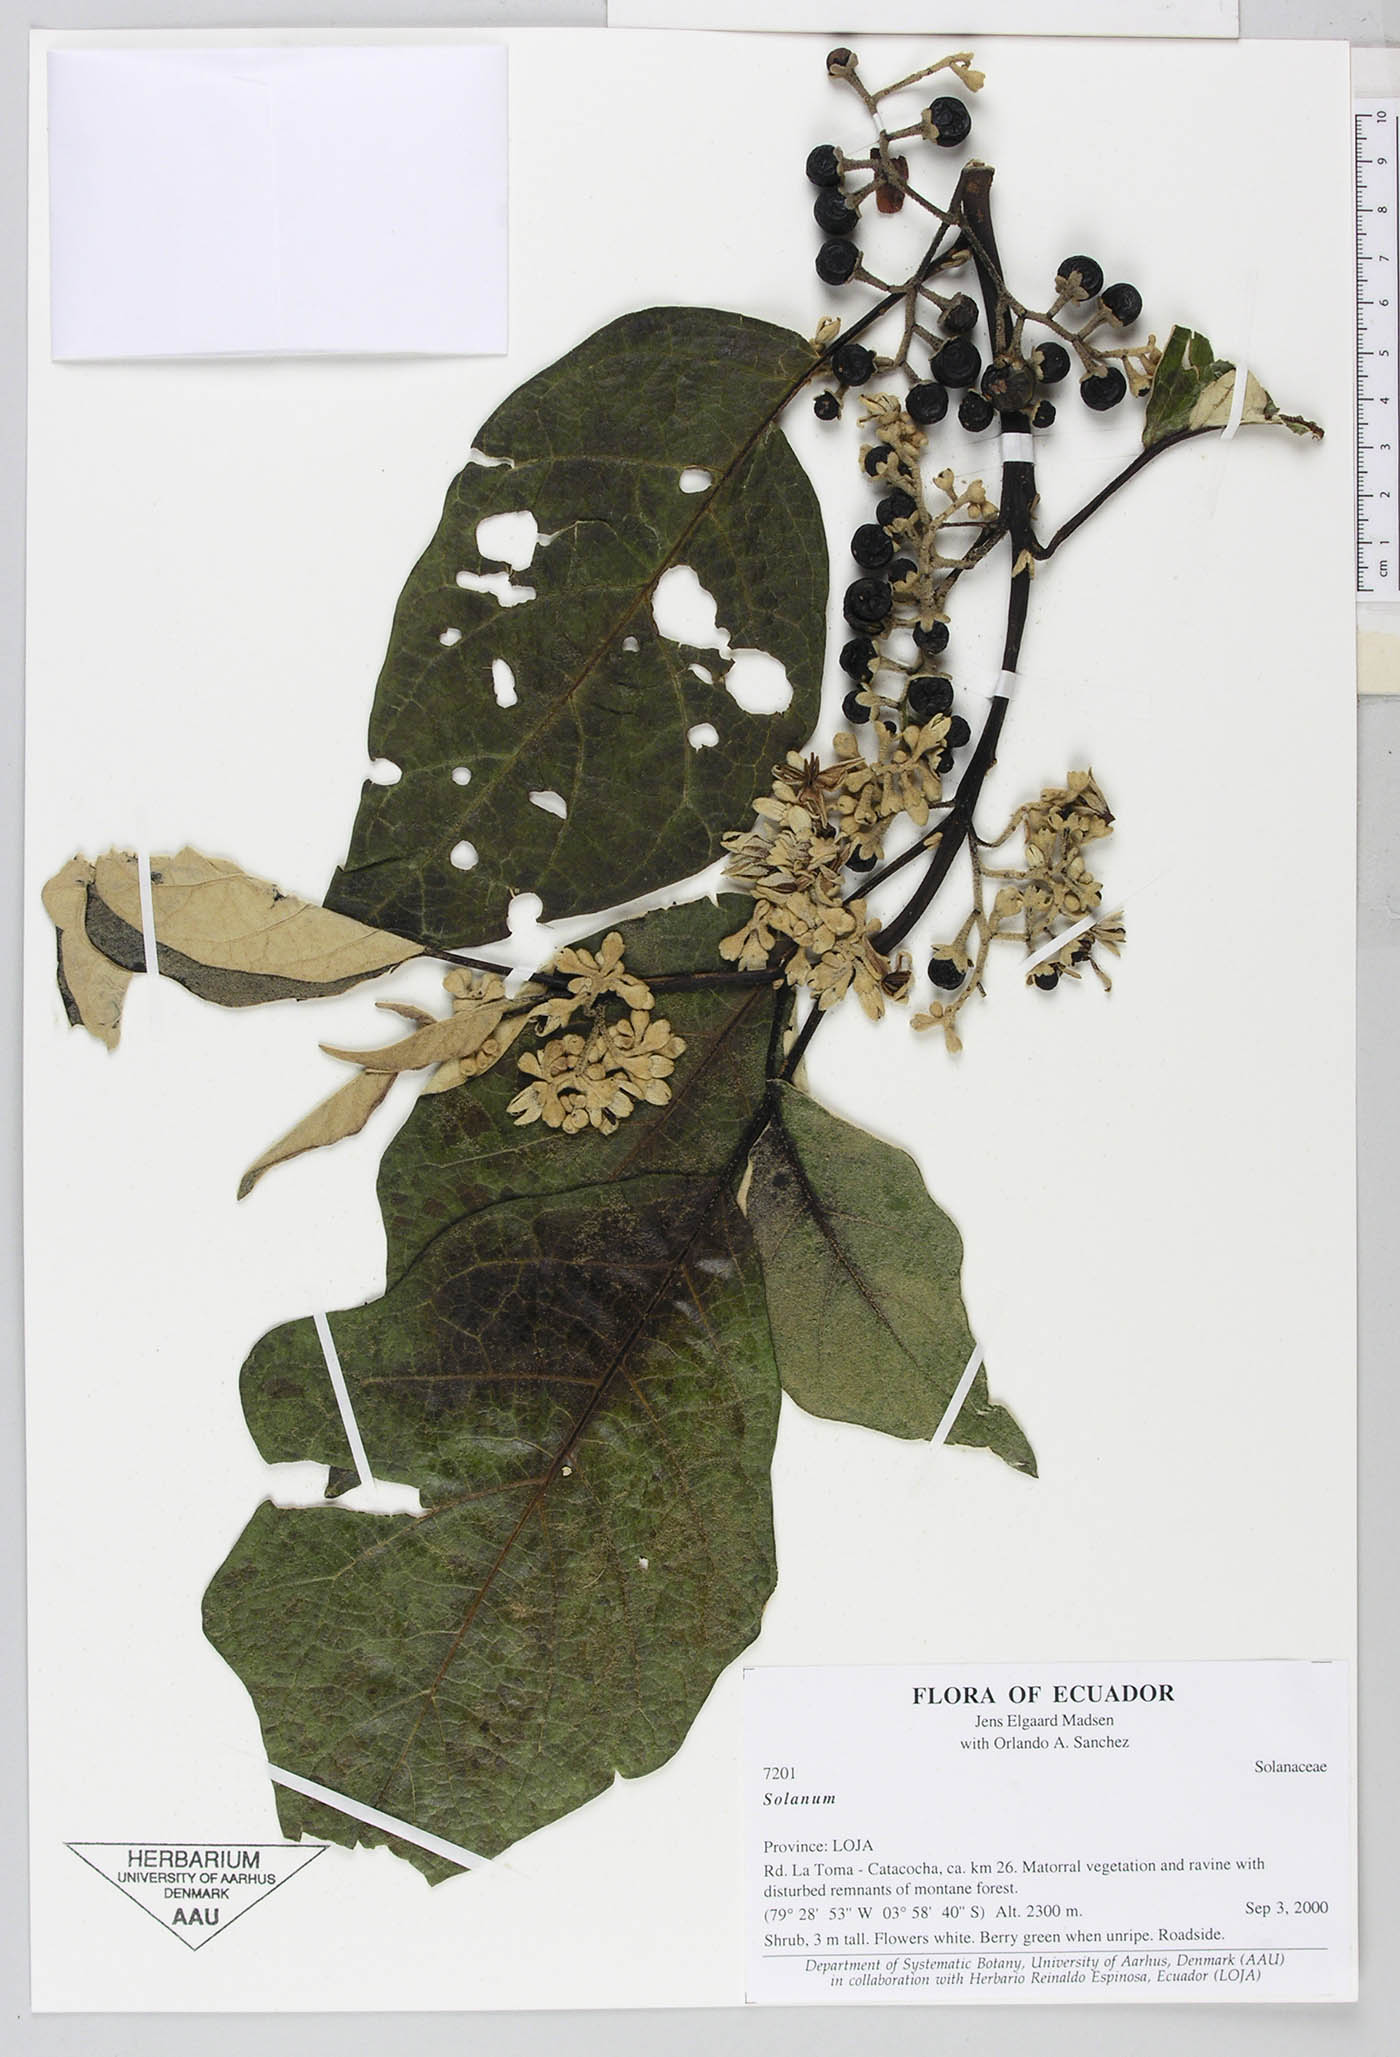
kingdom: Plantae
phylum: Tracheophyta
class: Magnoliopsida
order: Solanales
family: Solanaceae
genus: Solanum
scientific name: Solanum albidum
